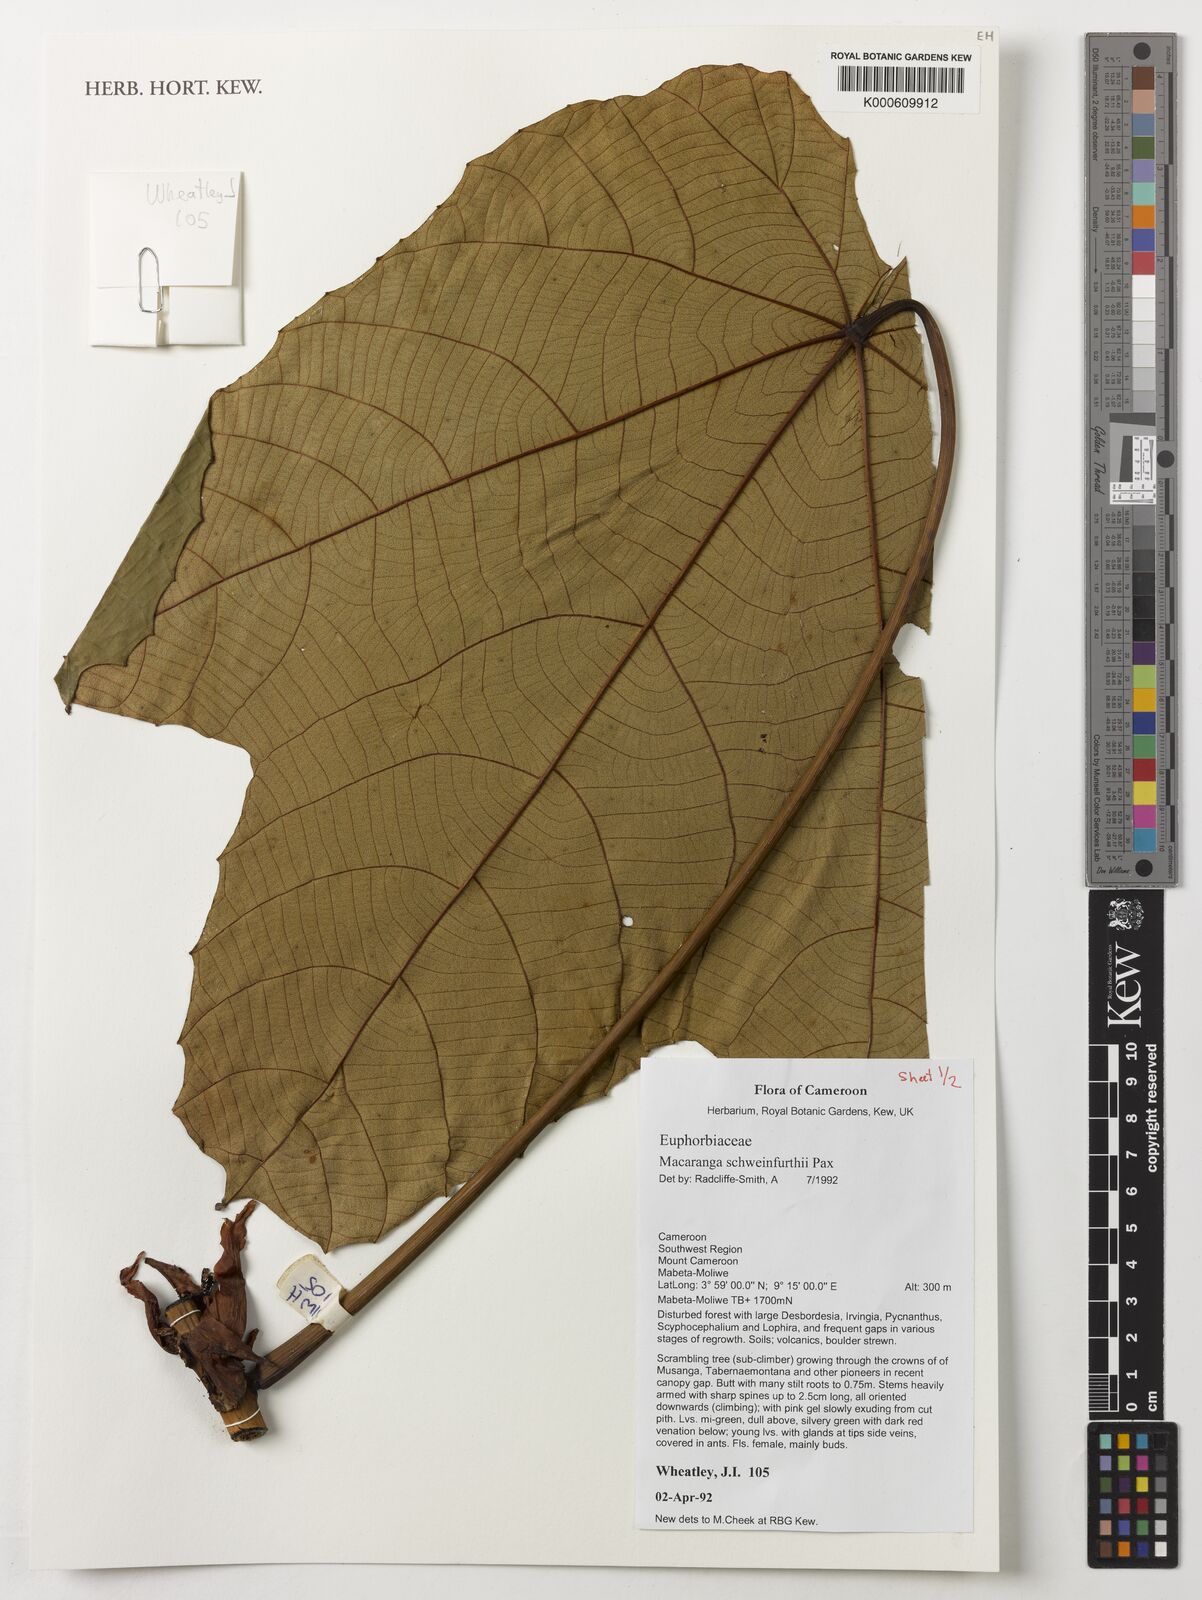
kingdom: Plantae
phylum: Tracheophyta
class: Magnoliopsida
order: Malpighiales
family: Euphorbiaceae
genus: Macaranga
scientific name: Macaranga schweinfurthii
